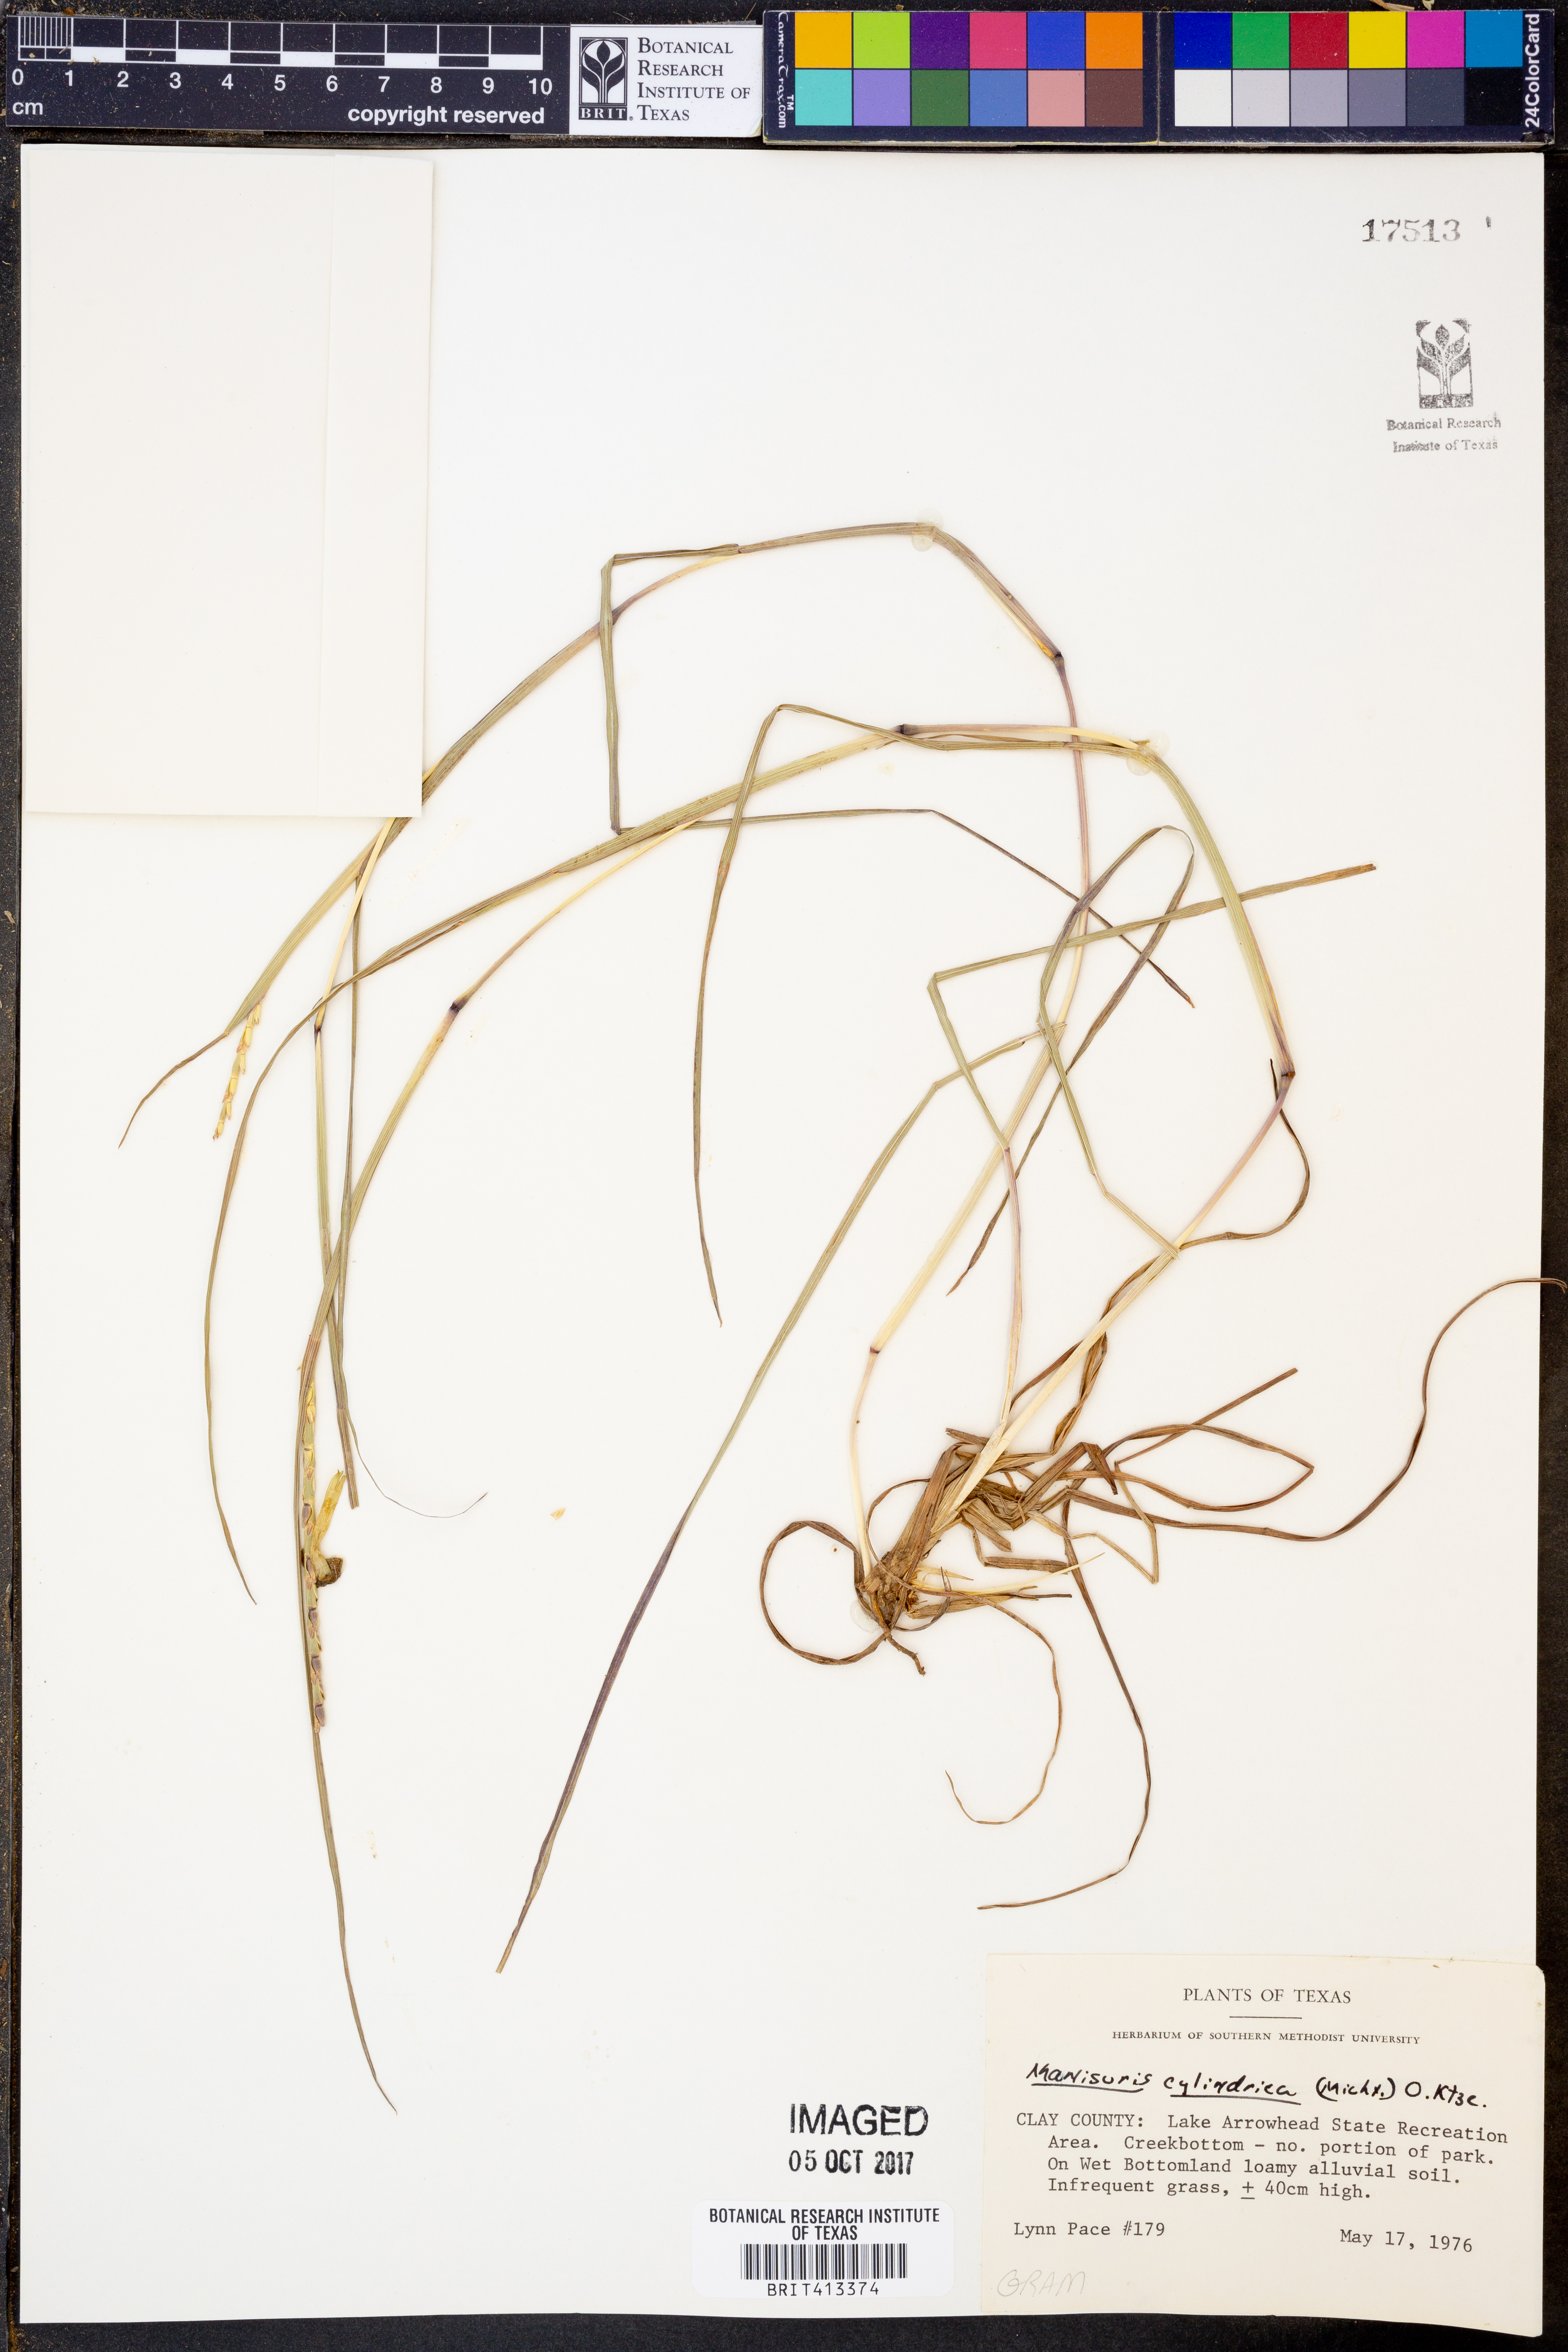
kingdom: Plantae
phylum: Tracheophyta
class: Liliopsida
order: Poales
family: Poaceae
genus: Rottboellia
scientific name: Rottboellia campestris
